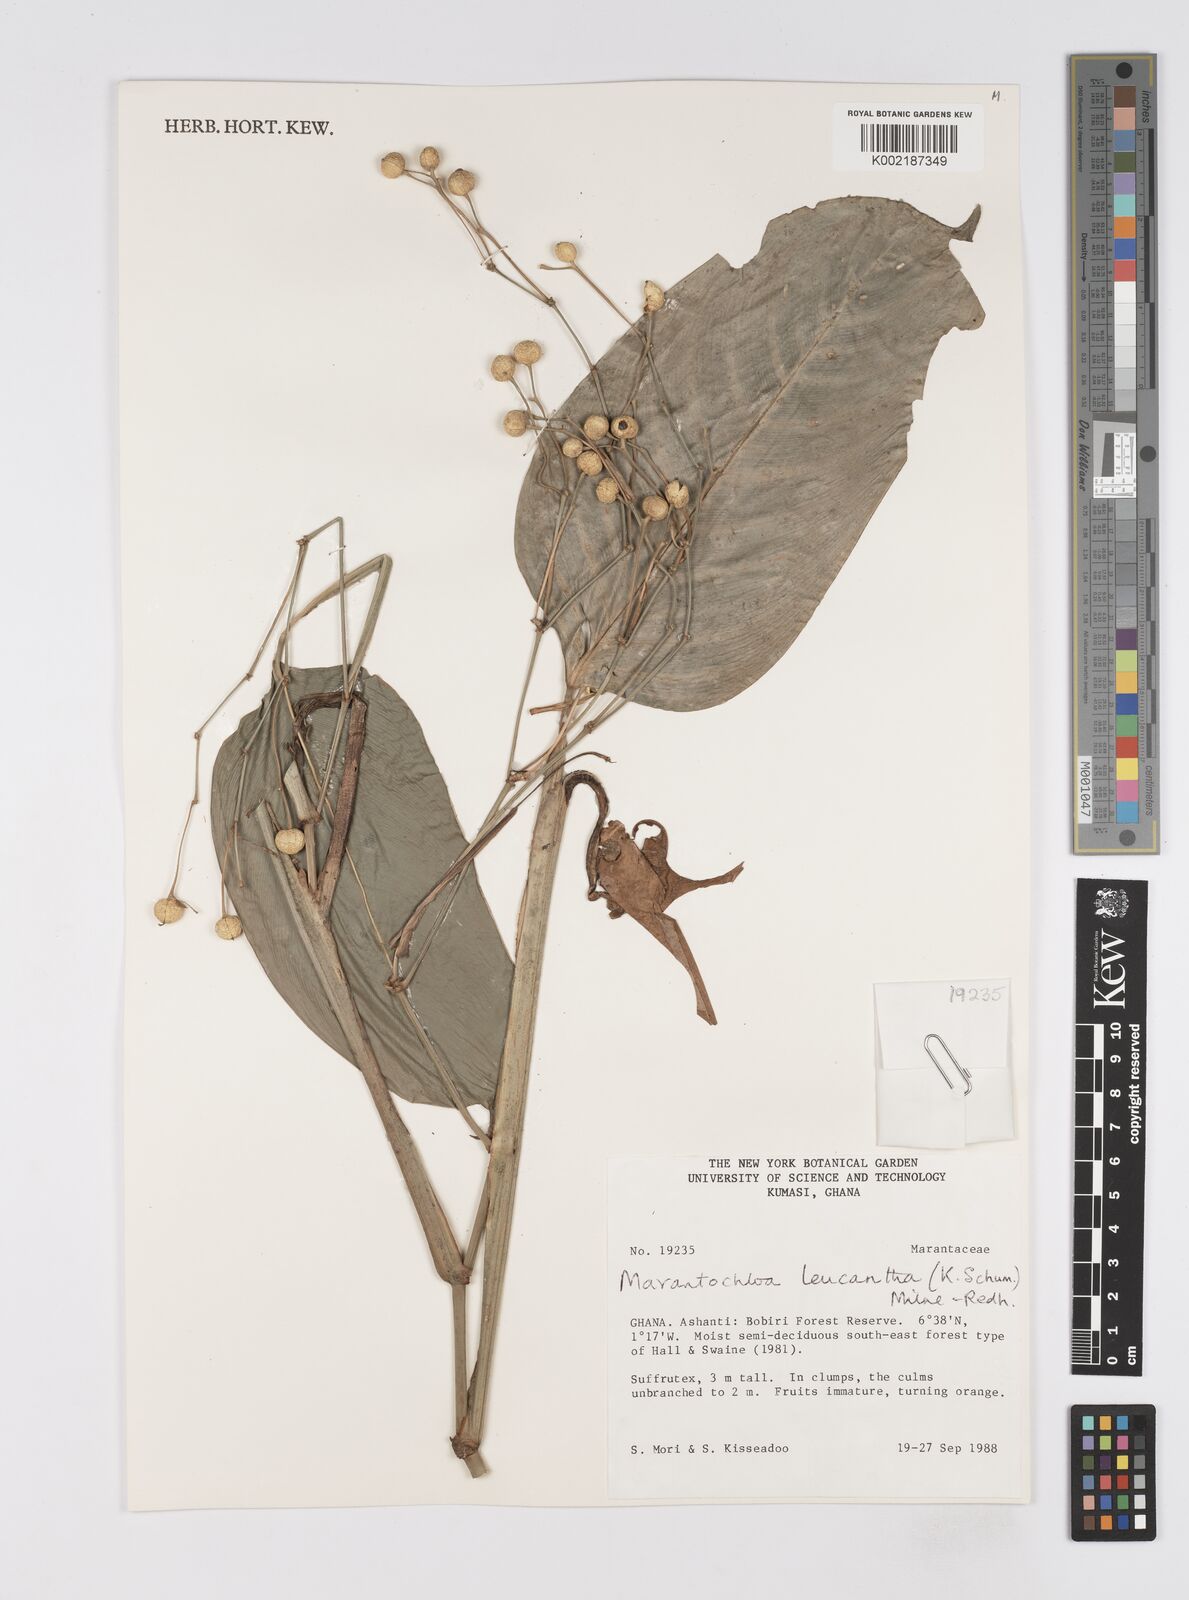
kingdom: Plantae
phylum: Tracheophyta
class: Liliopsida
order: Zingiberales
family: Marantaceae
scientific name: Marantaceae
